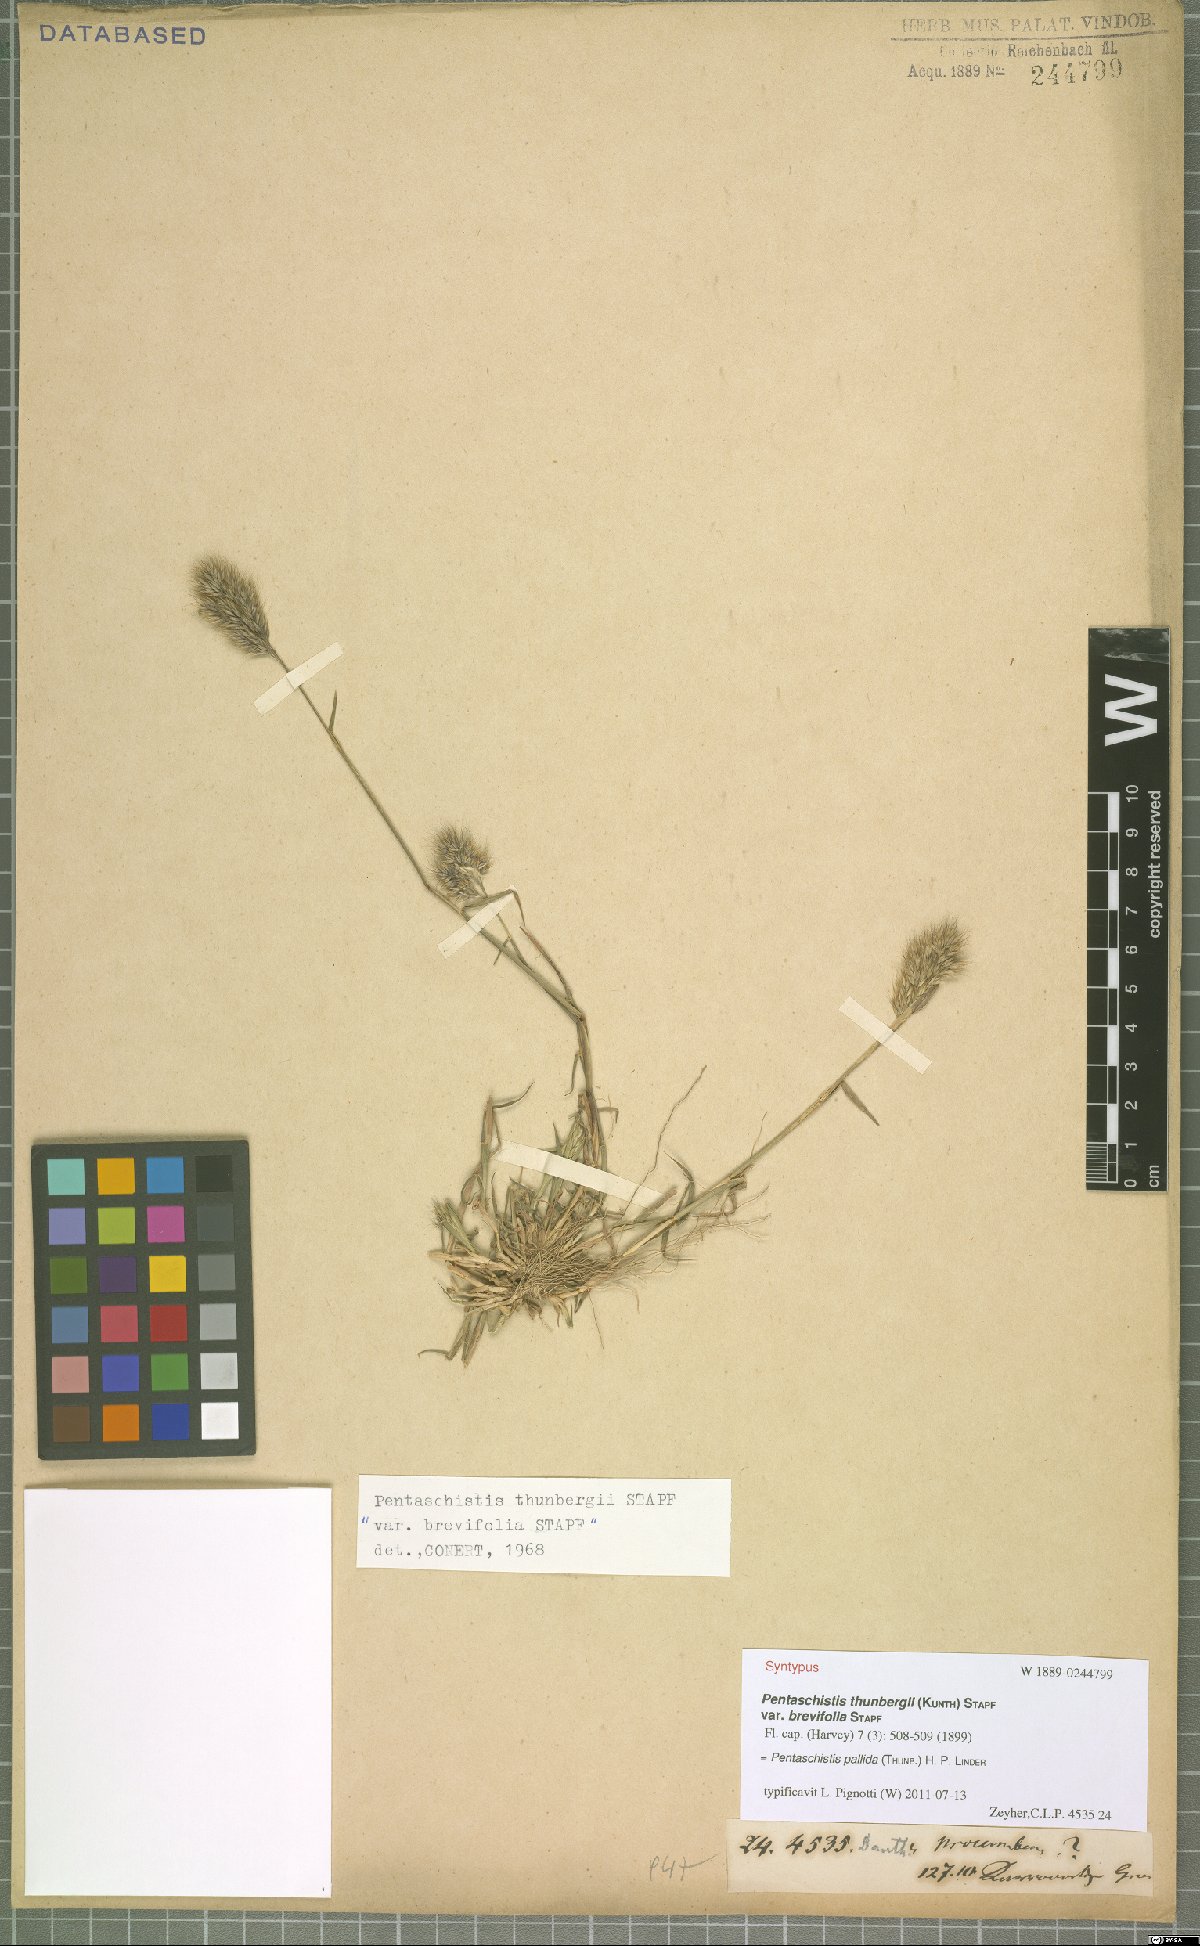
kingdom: Plantae
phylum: Tracheophyta
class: Liliopsida
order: Poales
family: Poaceae
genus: Pentameris
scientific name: Pentameris pallida
